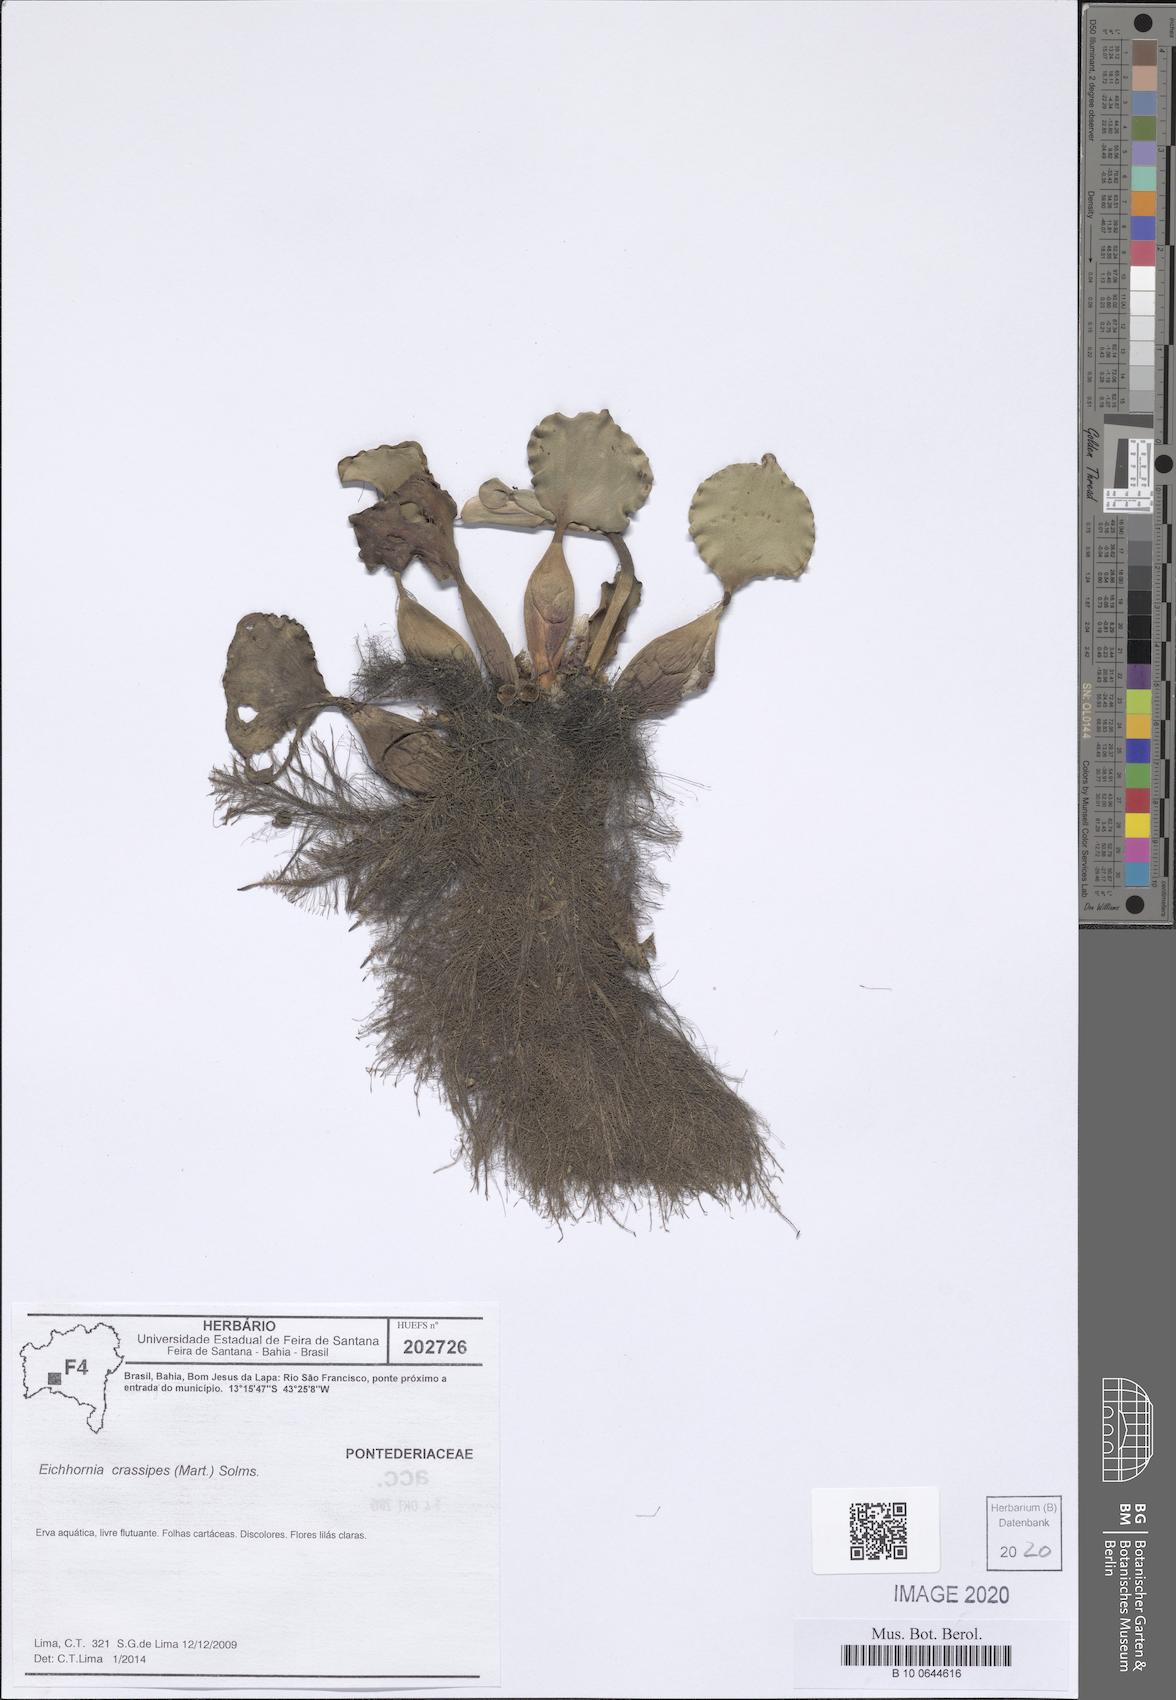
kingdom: Plantae
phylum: Tracheophyta
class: Liliopsida
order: Commelinales
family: Pontederiaceae
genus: Pontederia
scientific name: Pontederia crassipes
